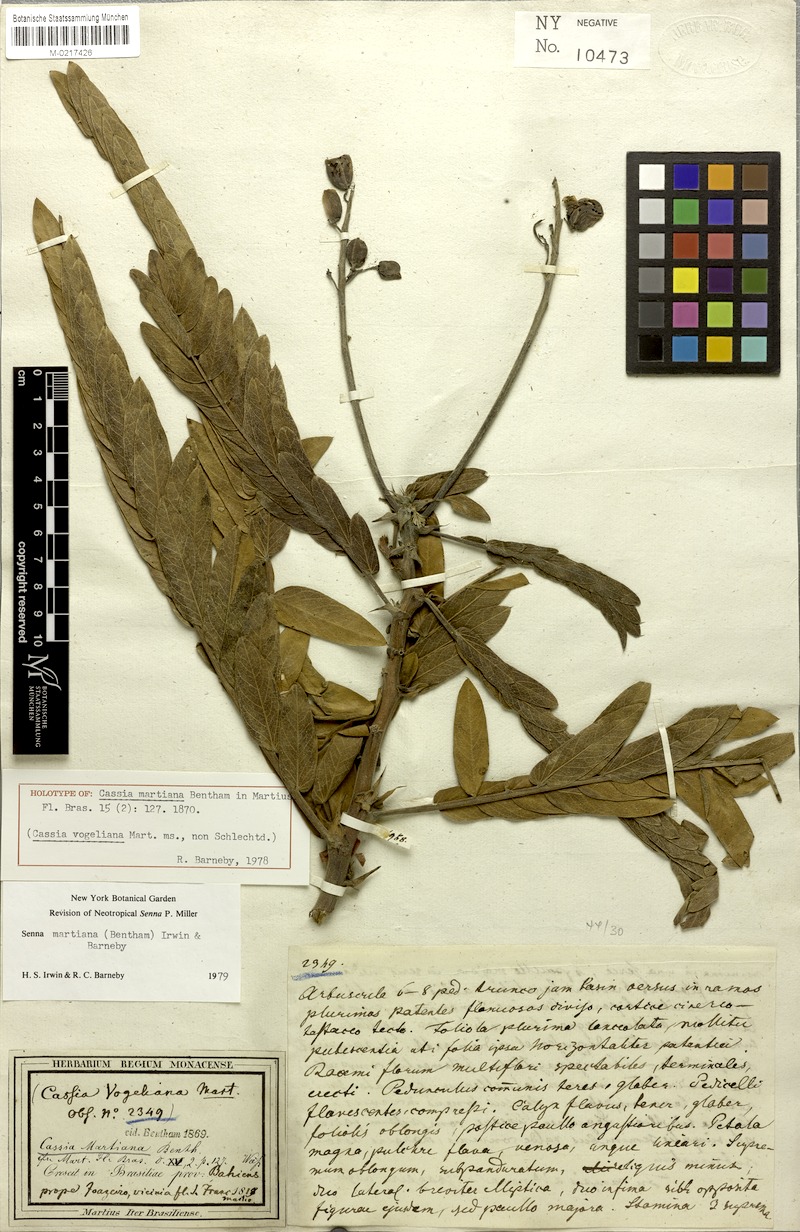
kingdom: Plantae
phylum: Tracheophyta
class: Magnoliopsida
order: Fabales
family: Fabaceae
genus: Senna
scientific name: Senna martiana
